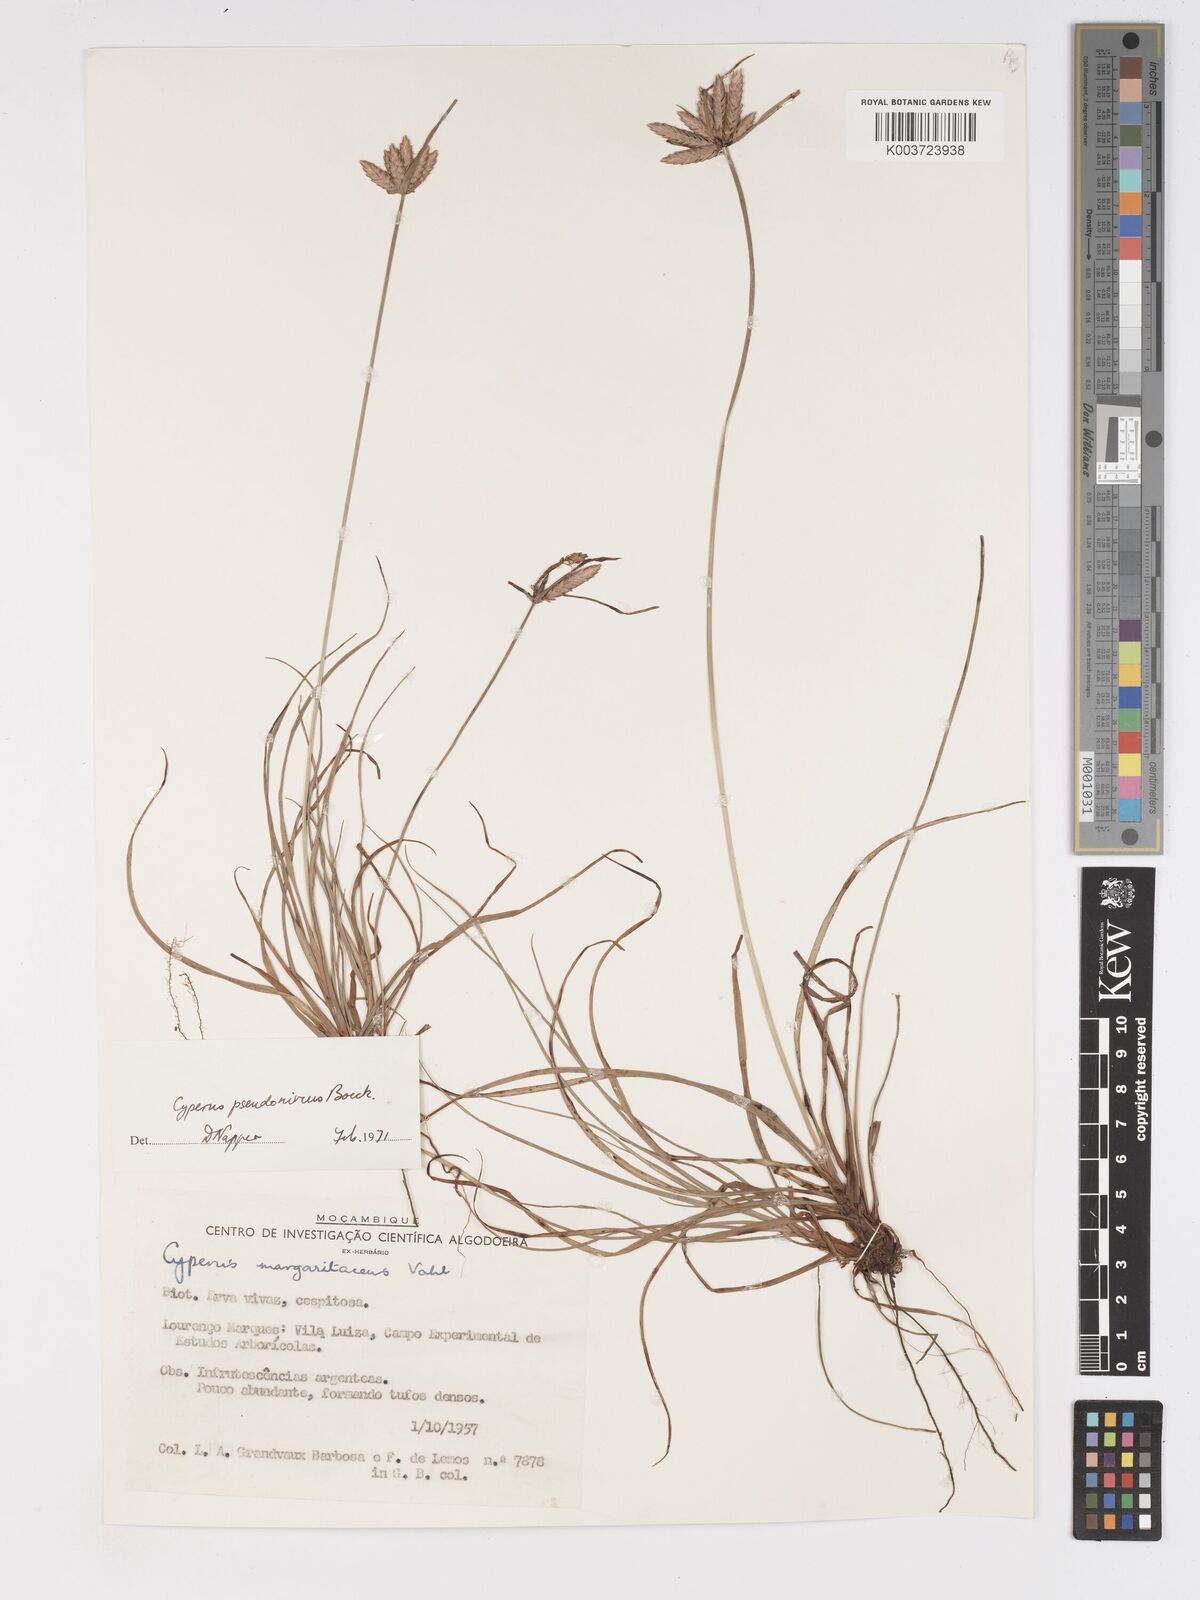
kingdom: Plantae
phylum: Tracheophyta
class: Liliopsida
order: Poales
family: Cyperaceae
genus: Cyperus
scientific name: Cyperus margaritaceus
